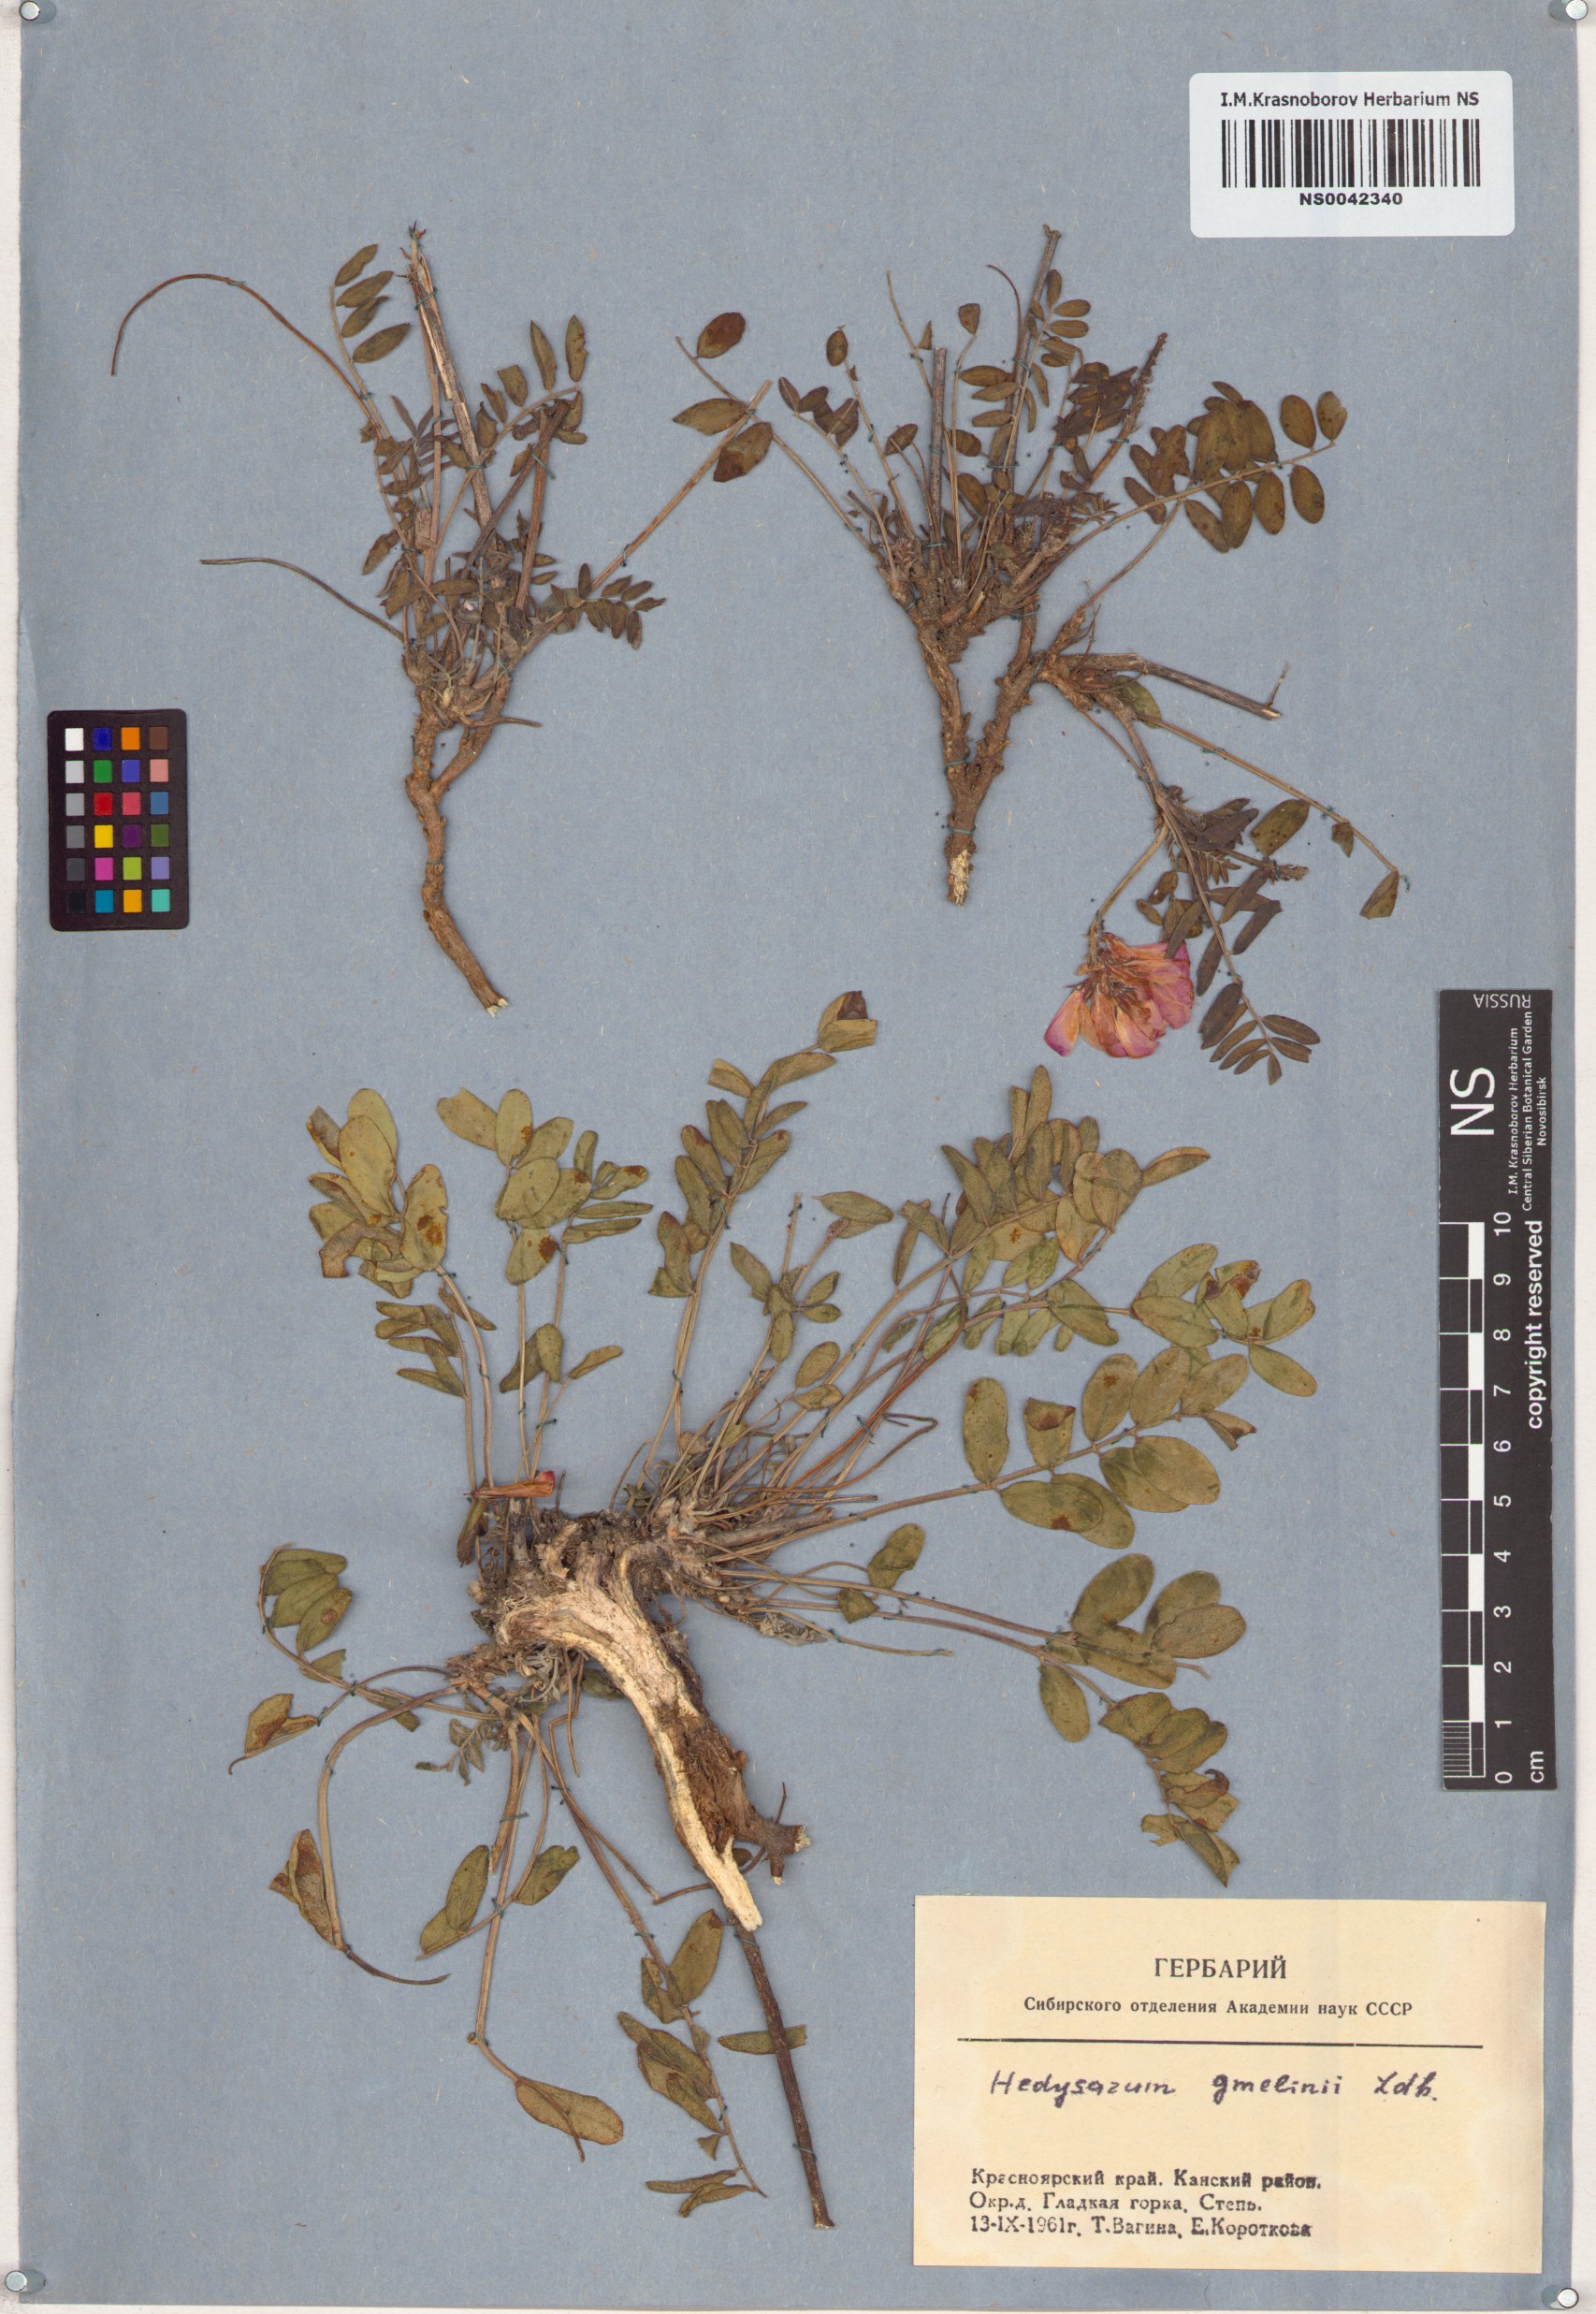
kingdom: Plantae
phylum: Tracheophyta
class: Magnoliopsida
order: Fabales
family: Fabaceae
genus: Hedysarum
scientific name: Hedysarum gmelinii
